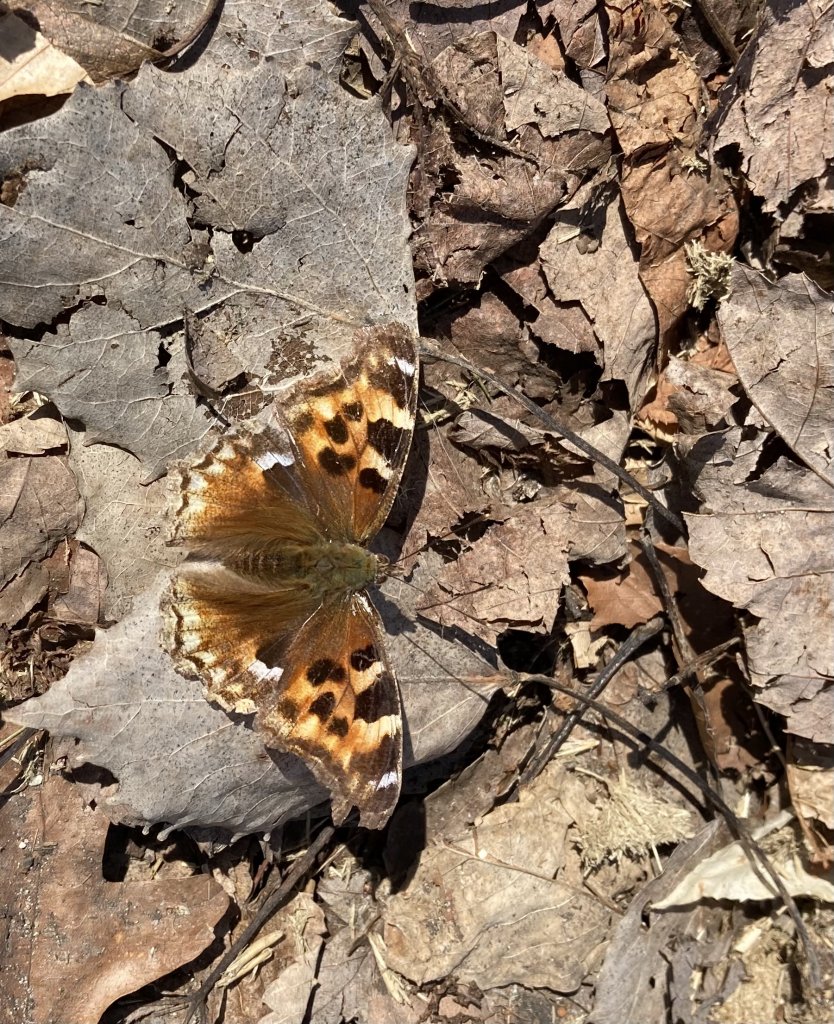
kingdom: Animalia
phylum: Arthropoda
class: Insecta
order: Lepidoptera
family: Nymphalidae
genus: Polygonia
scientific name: Polygonia vaualbum
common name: Compton Tortoiseshell
